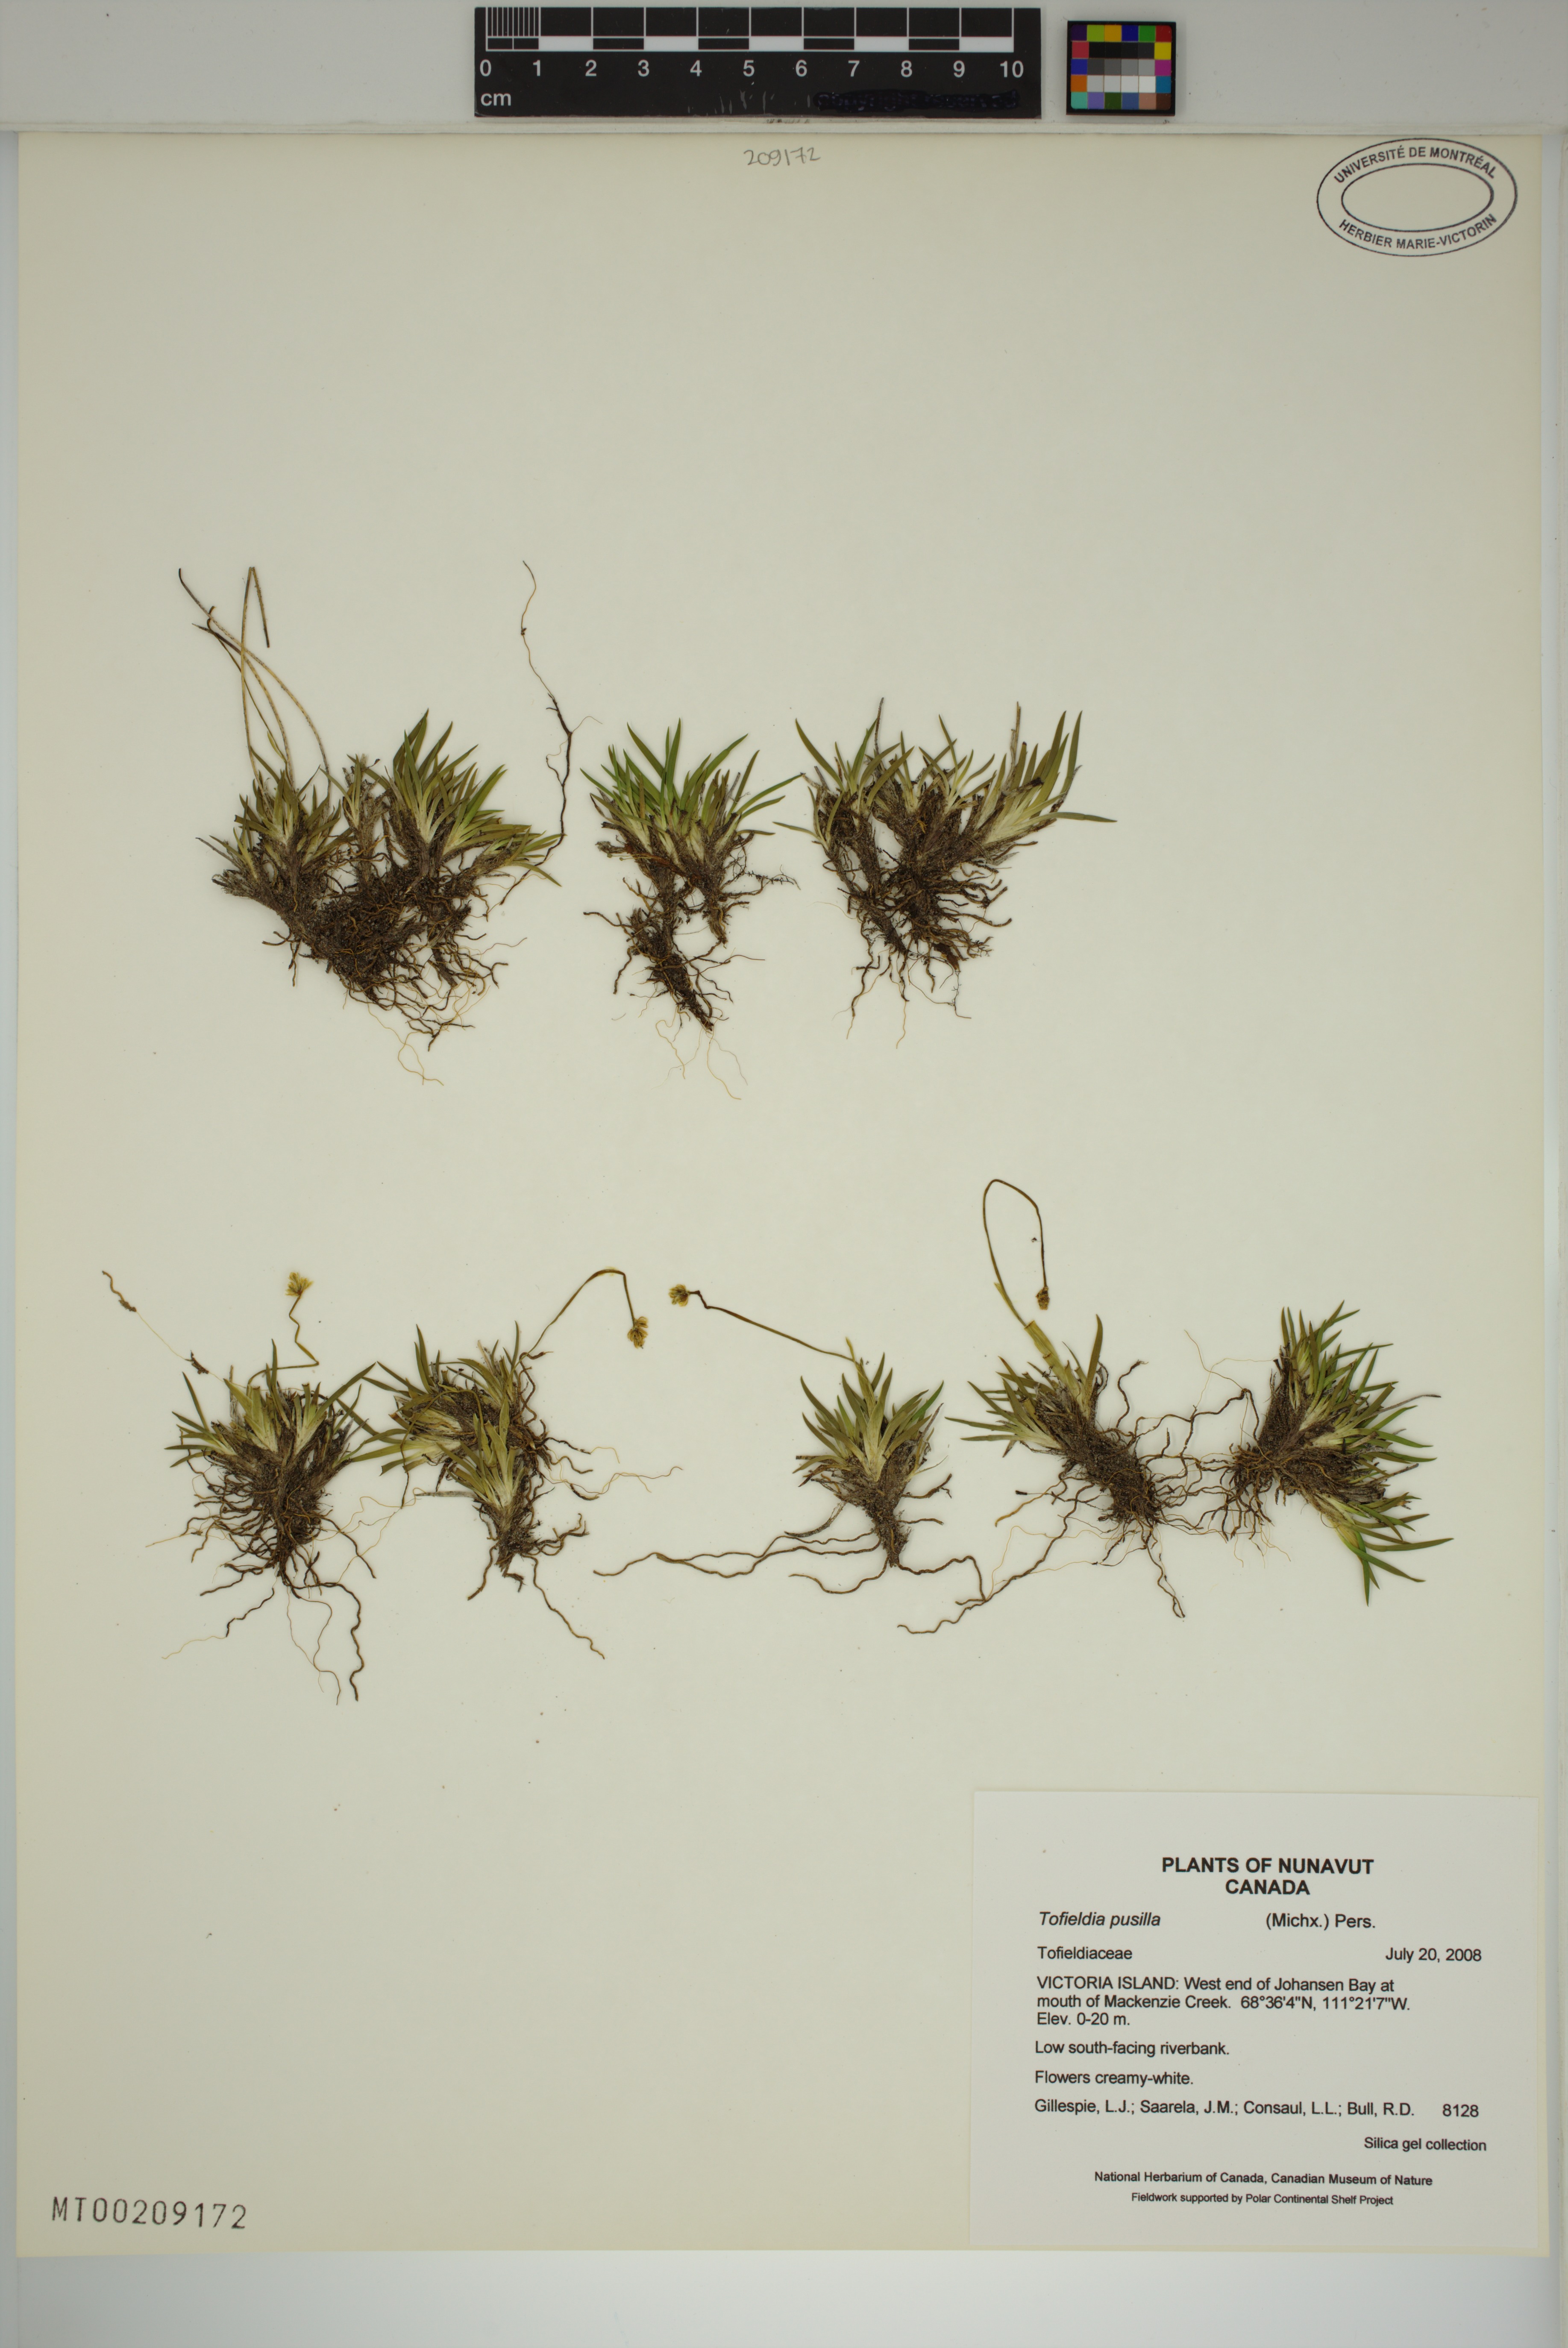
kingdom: Plantae
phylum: Tracheophyta
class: Liliopsida
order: Alismatales
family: Tofieldiaceae
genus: Tofieldia
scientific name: Tofieldia pusilla
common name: Scottish false asphodel
